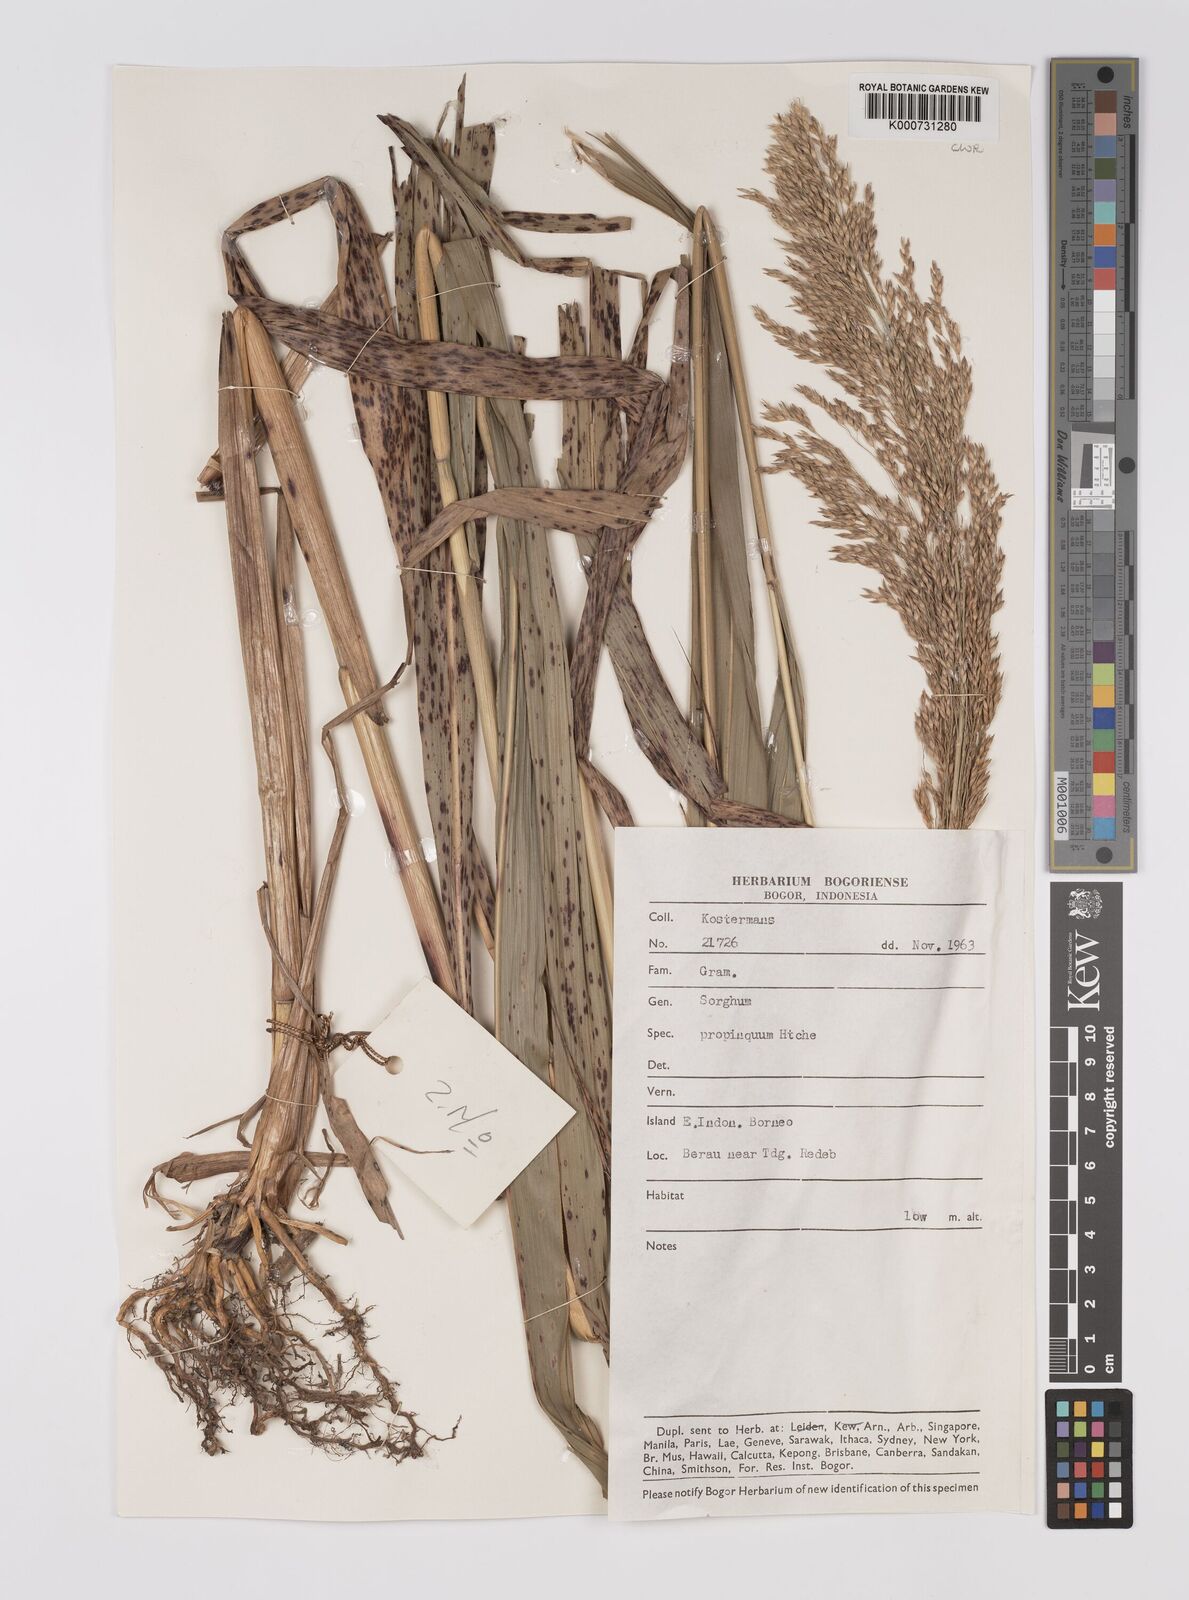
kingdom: Plantae
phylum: Tracheophyta
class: Liliopsida
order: Poales
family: Poaceae
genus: Sorghum
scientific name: Sorghum propinquum
